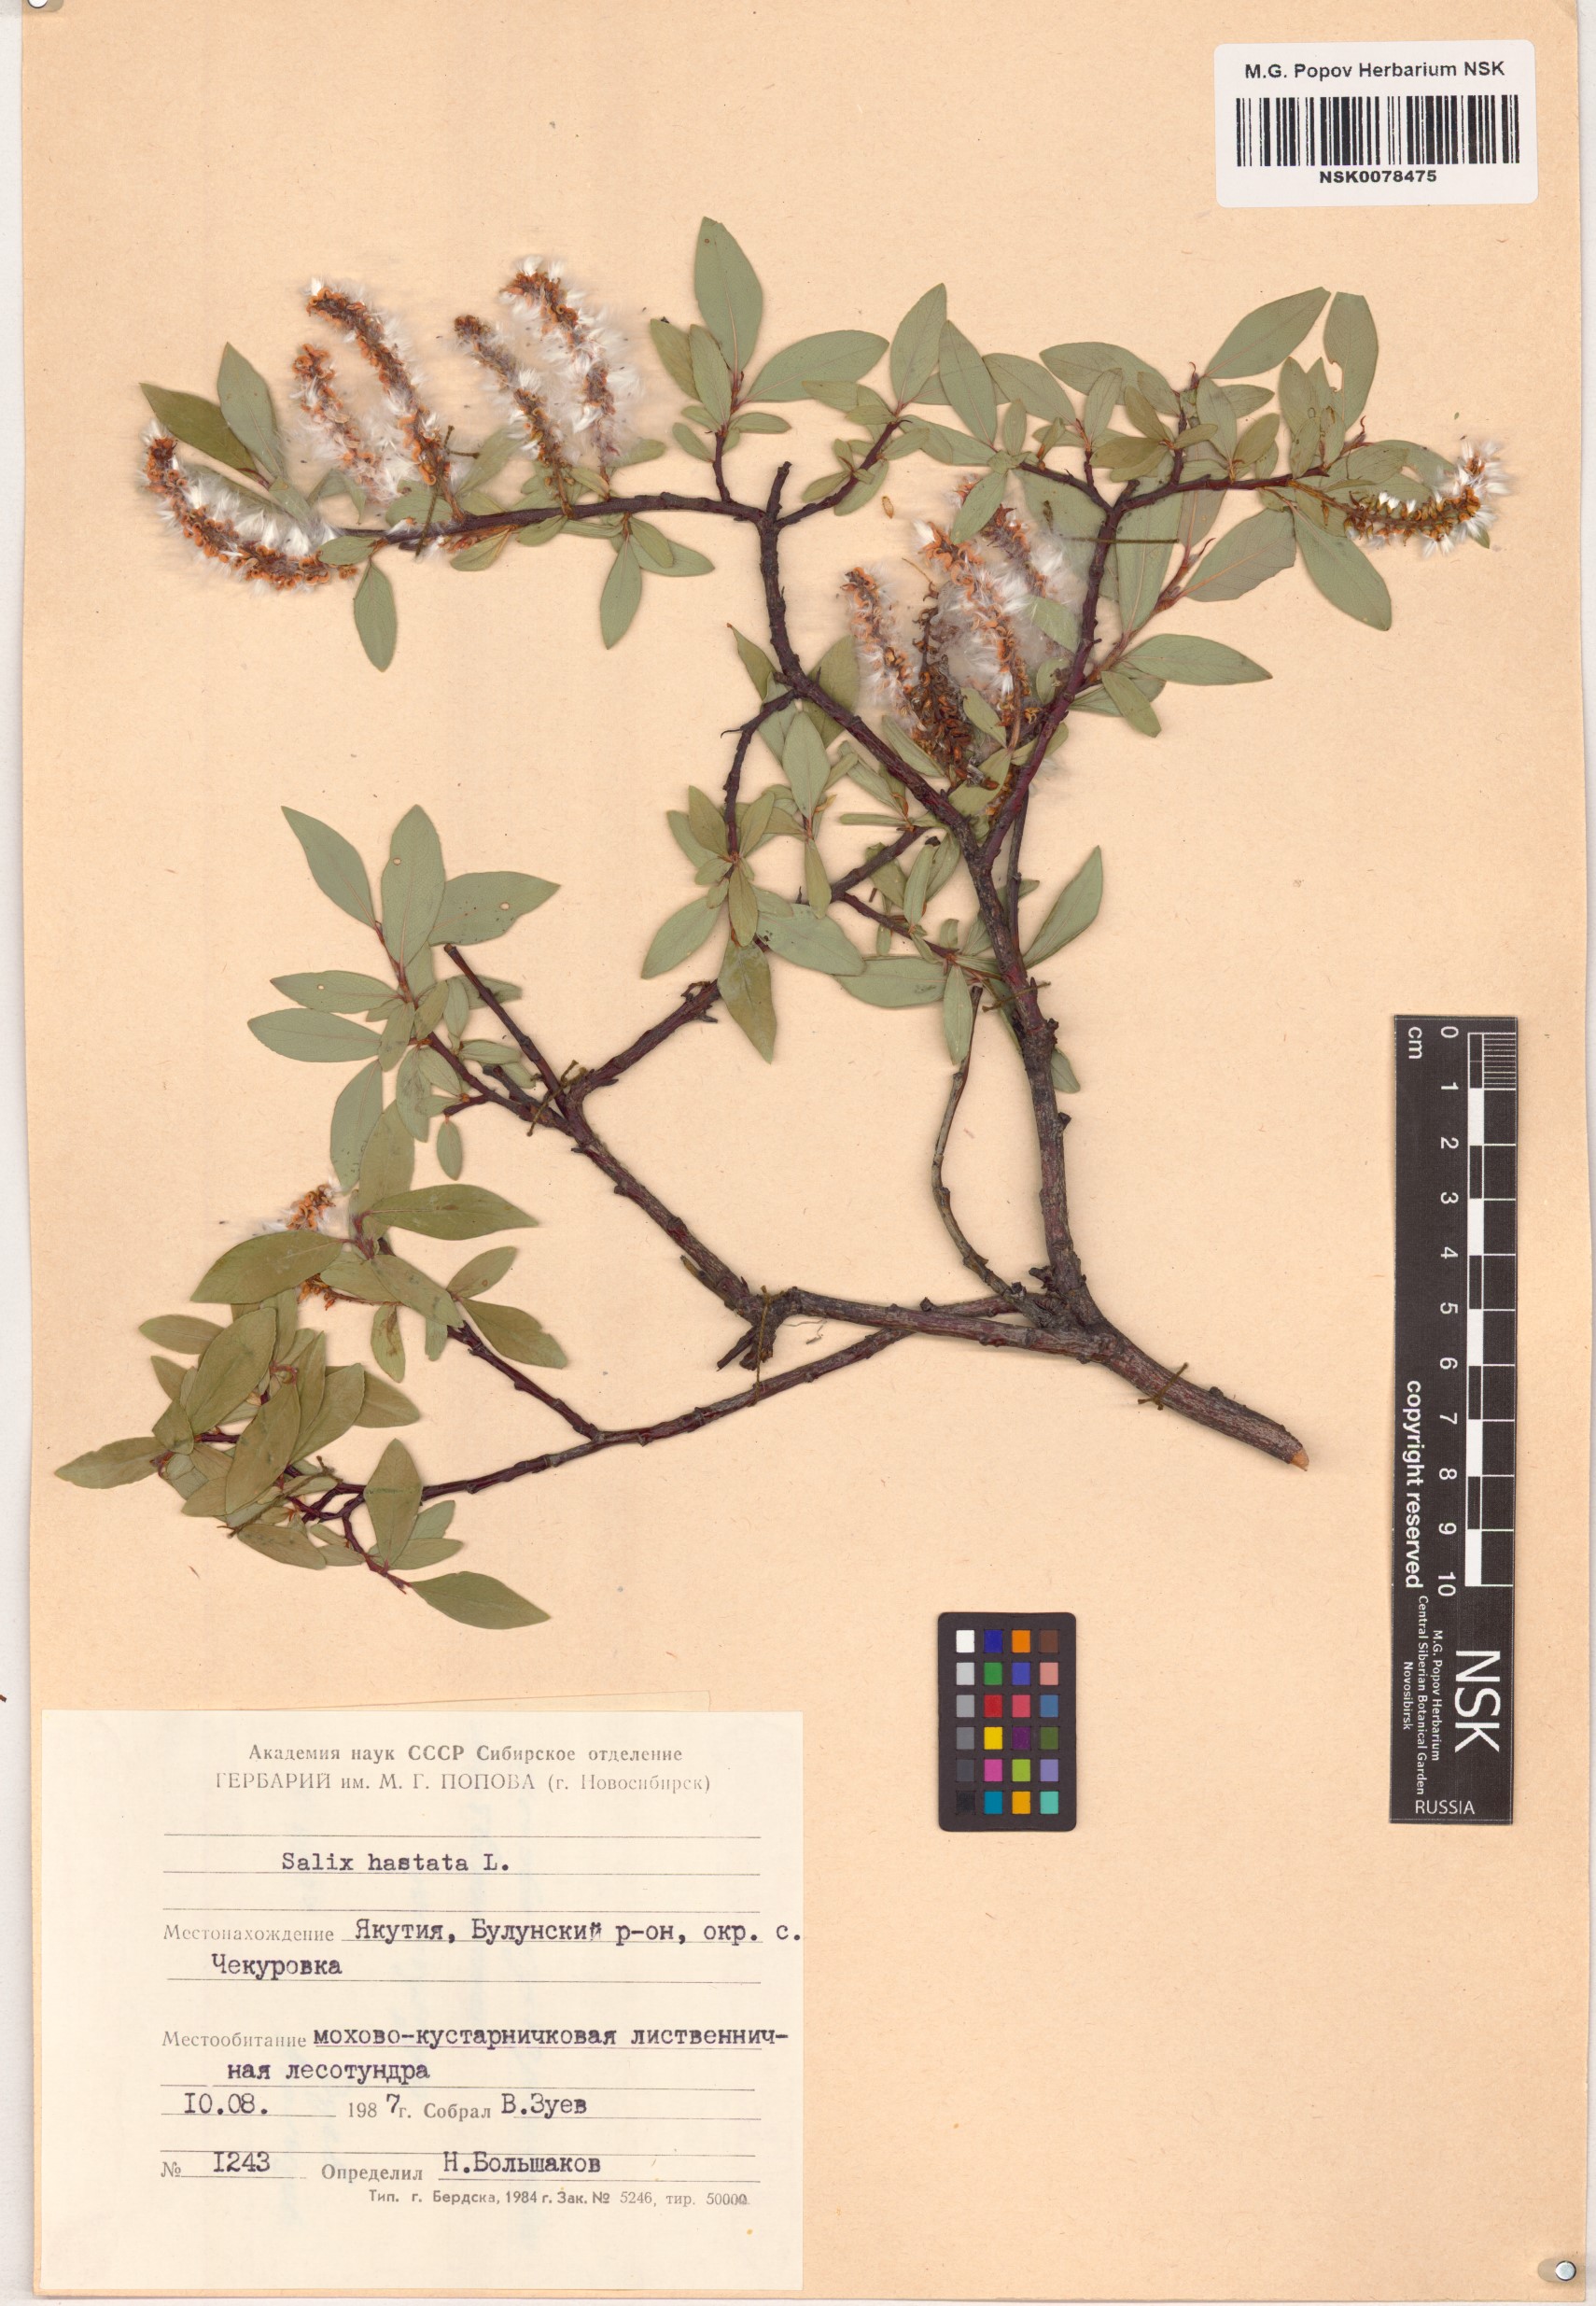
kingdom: Plantae
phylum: Tracheophyta
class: Magnoliopsida
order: Malpighiales
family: Salicaceae
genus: Salix
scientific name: Salix hastata
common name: Halberd willow
